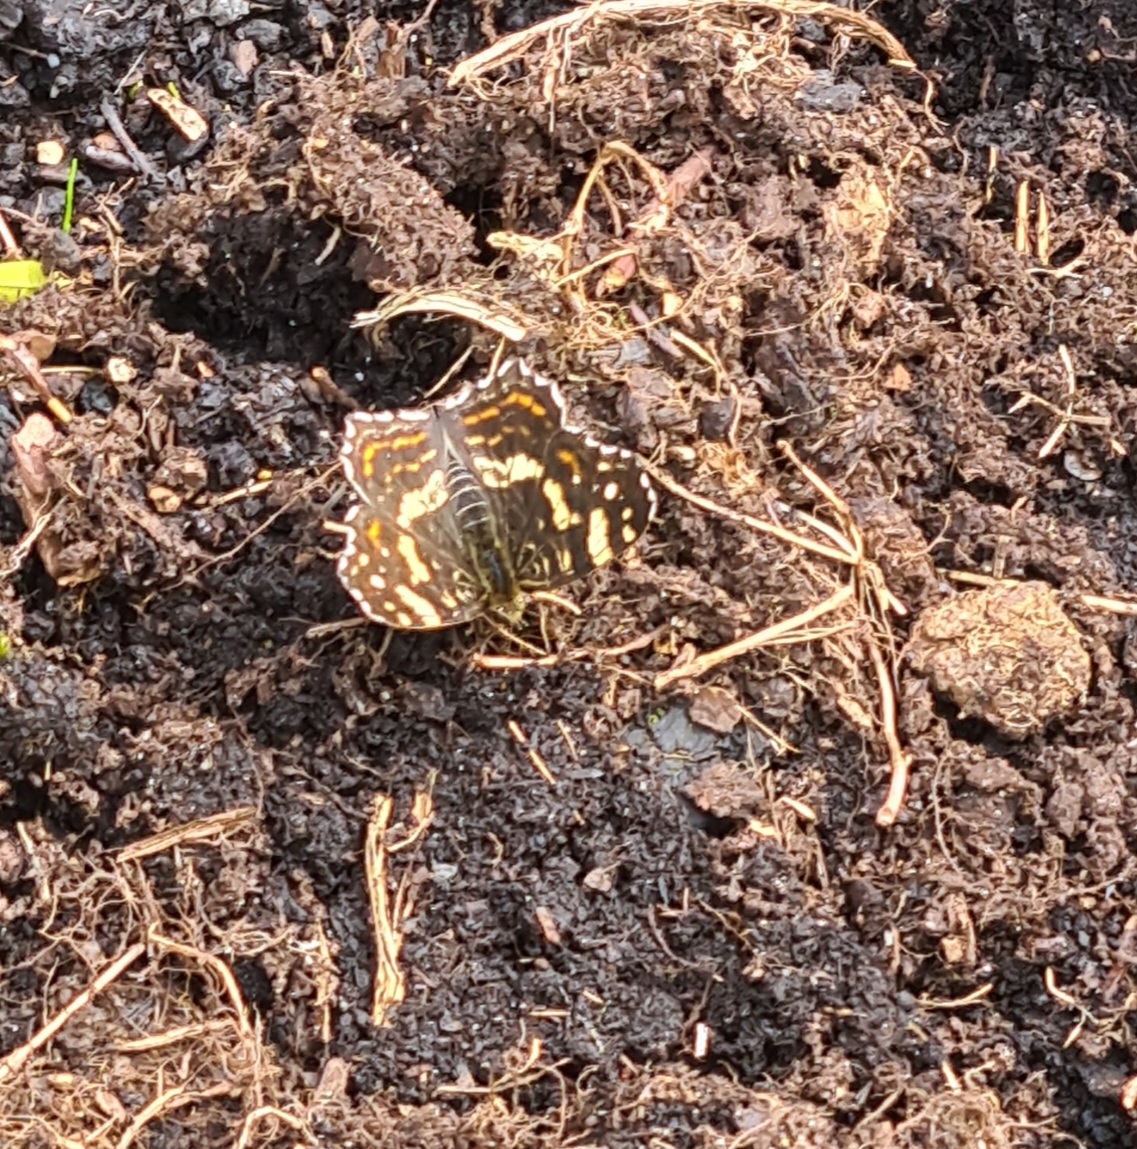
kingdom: Animalia
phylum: Arthropoda
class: Insecta
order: Lepidoptera
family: Nymphalidae
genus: Araschnia
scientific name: Araschnia levana
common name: Nældesommerfugl
